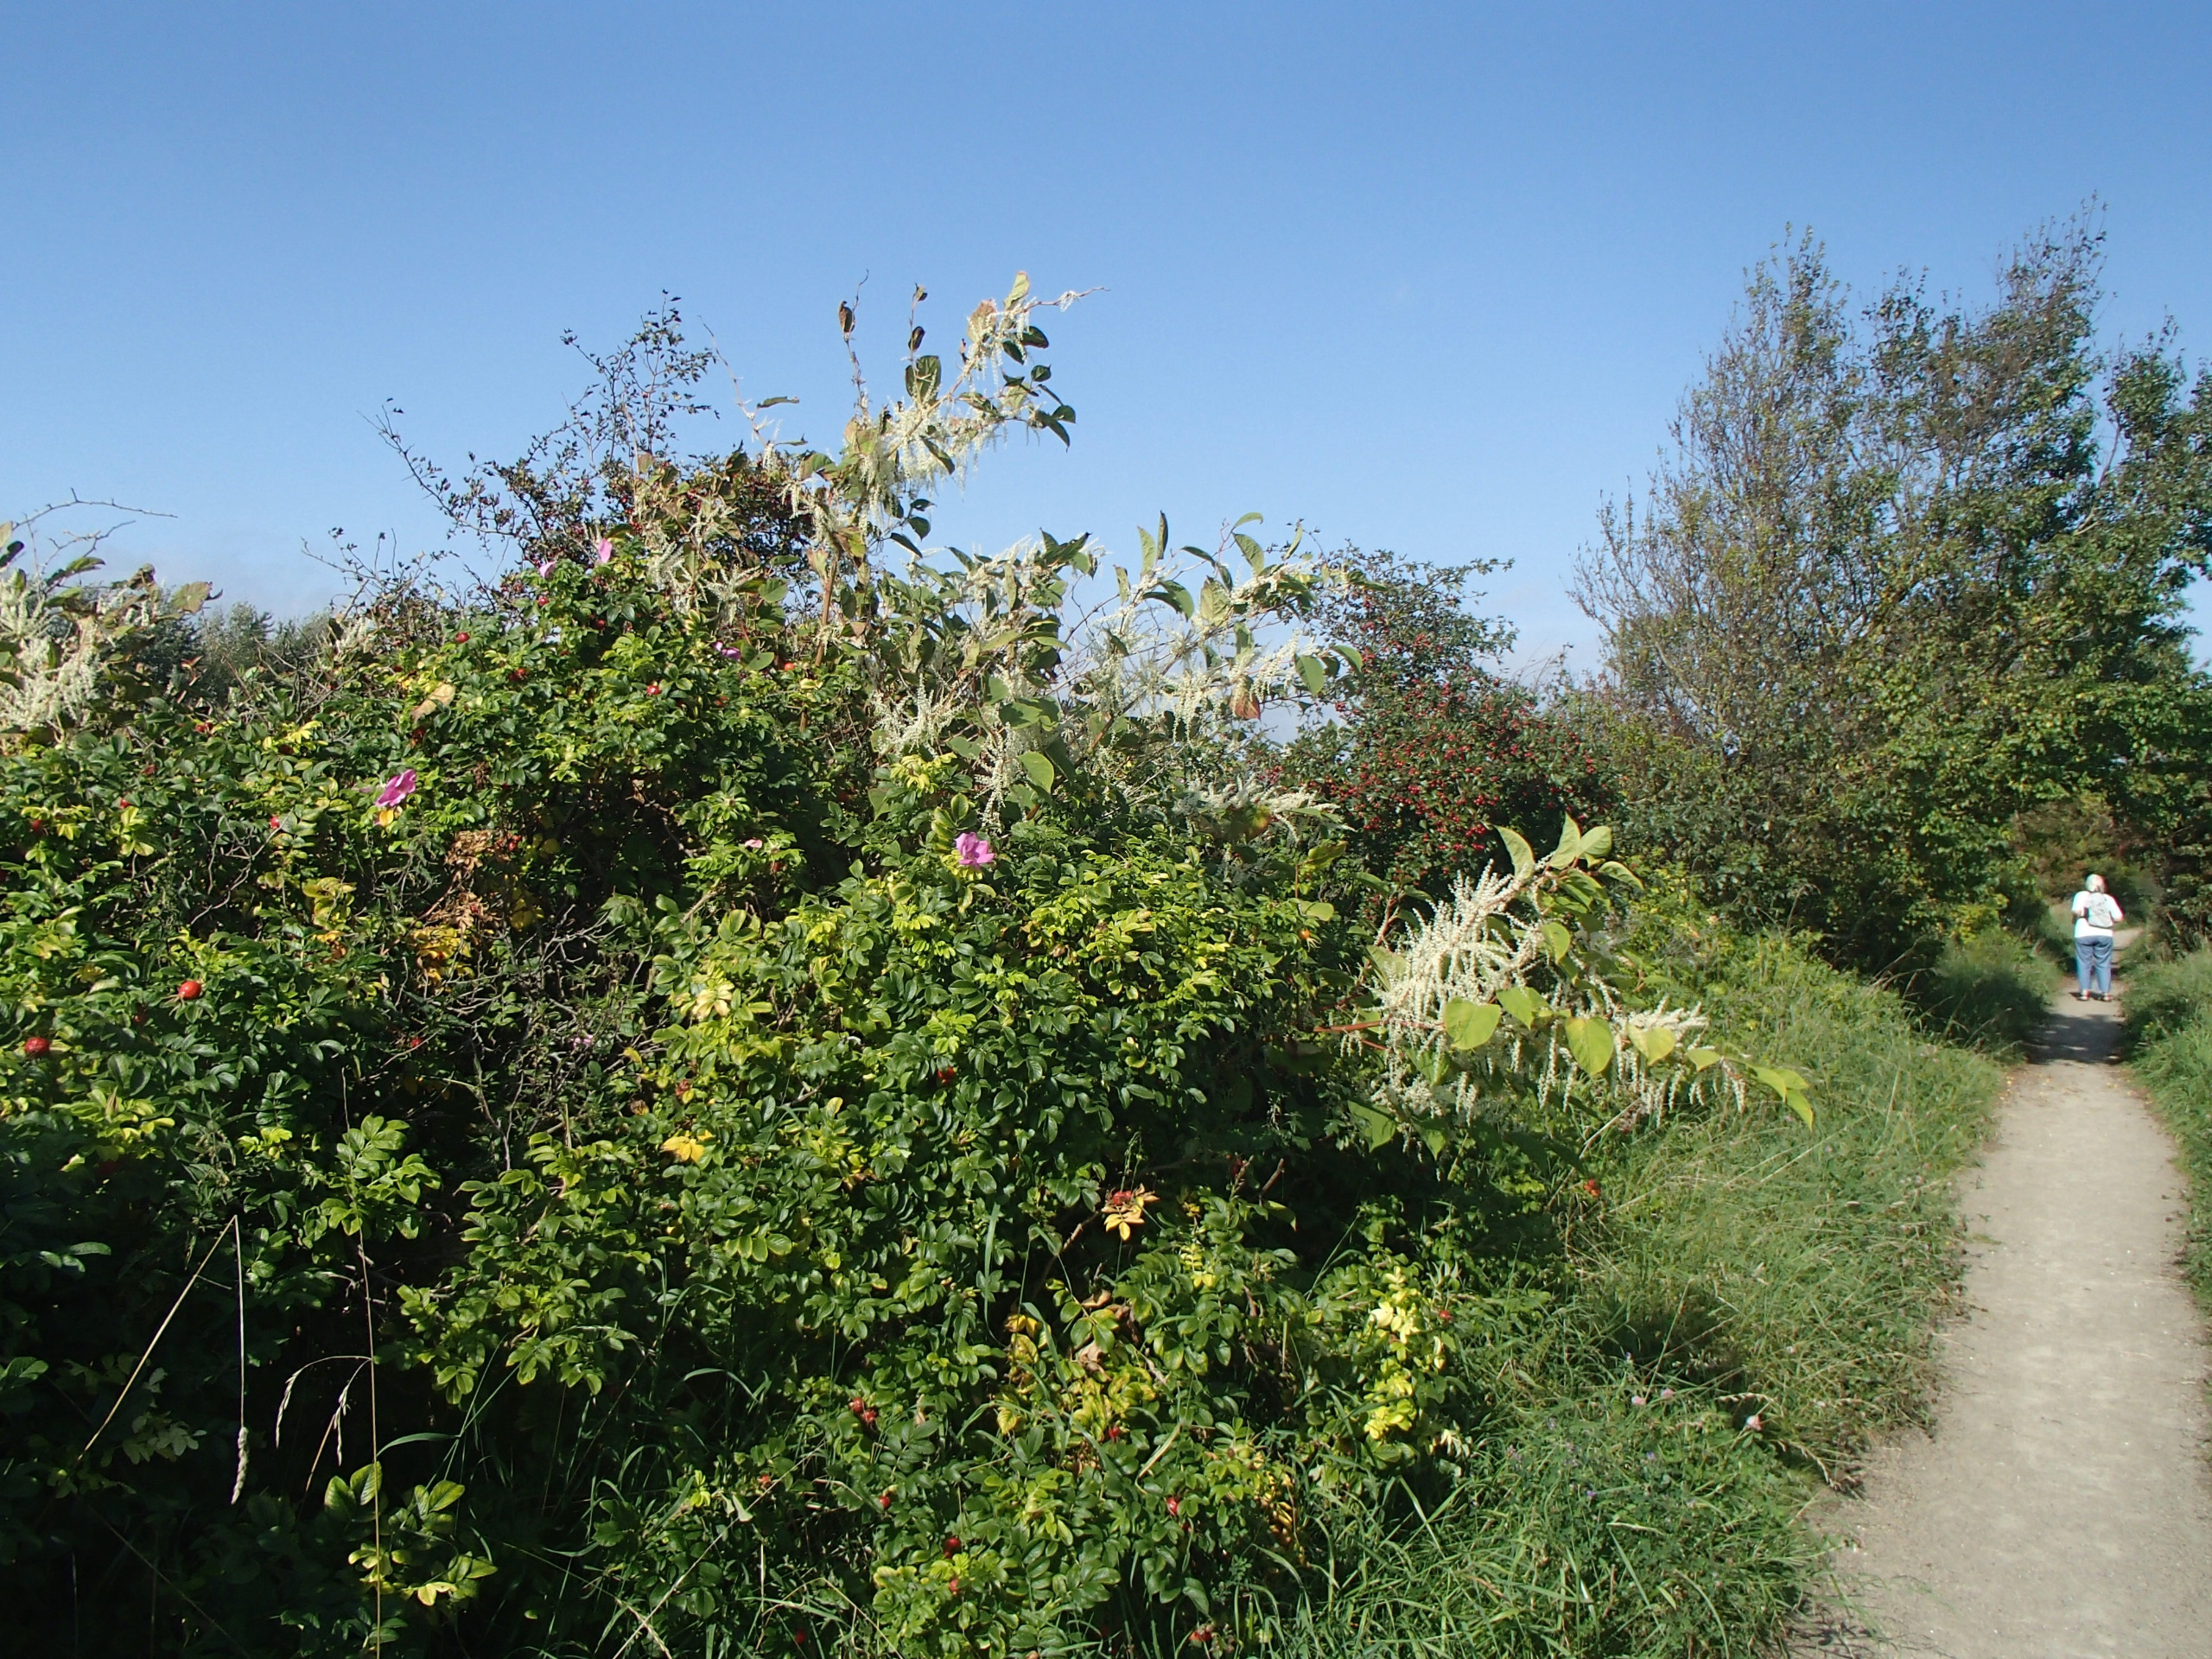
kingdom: Plantae
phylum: Tracheophyta
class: Magnoliopsida
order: Caryophyllales
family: Polygonaceae
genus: Reynoutria
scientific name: Reynoutria japonica
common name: Japan-pileurt
